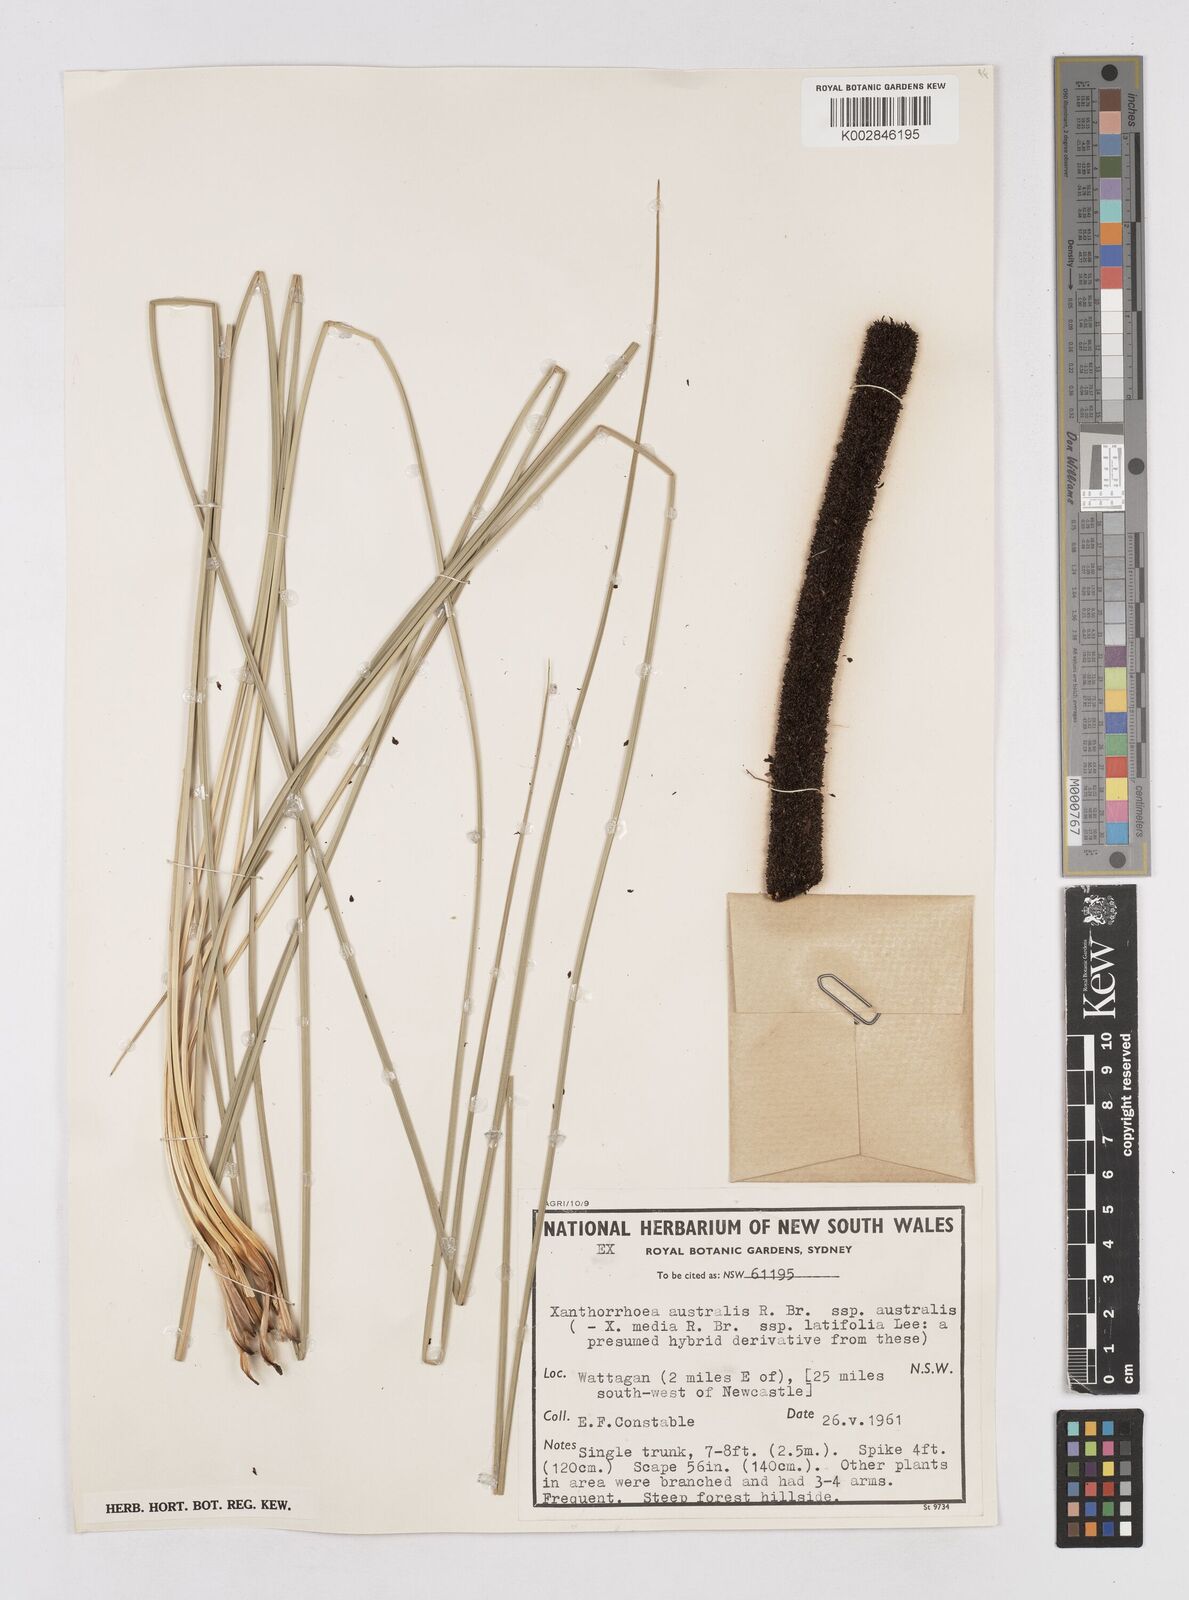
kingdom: Plantae
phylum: Tracheophyta
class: Liliopsida
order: Asparagales
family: Asphodelaceae
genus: Xanthorrhoea
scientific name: Xanthorrhoea australis
